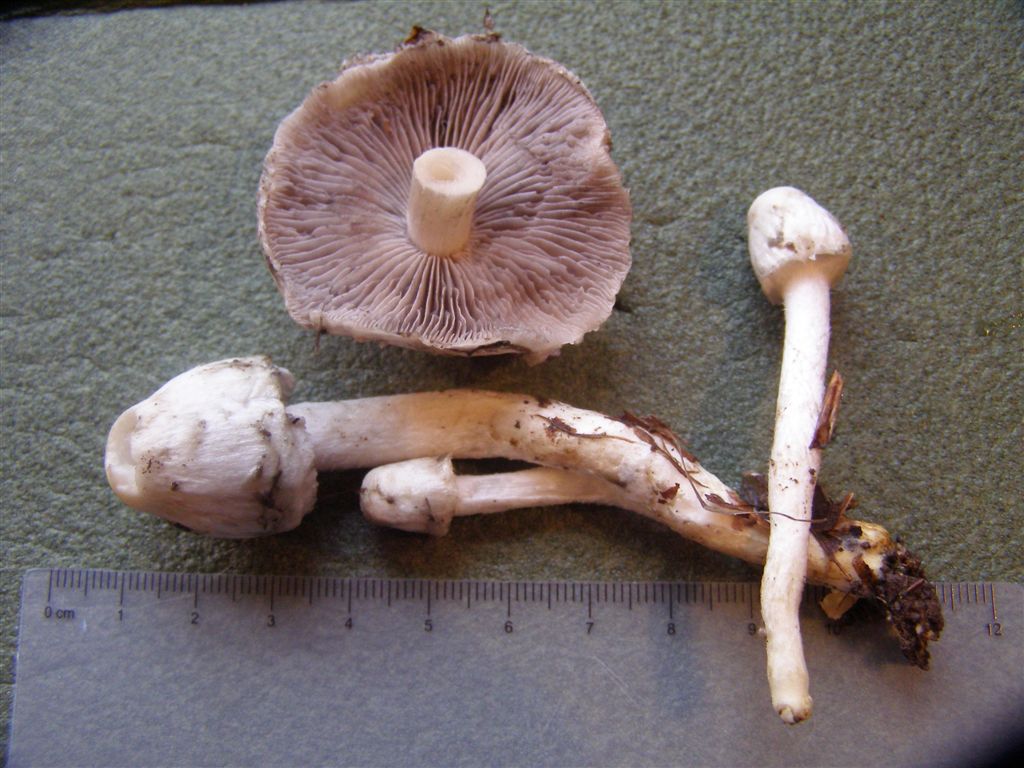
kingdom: Fungi
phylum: Basidiomycota
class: Agaricomycetes
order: Agaricales
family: Psathyrellaceae
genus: Psathyrella
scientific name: Psathyrella cotonea
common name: skællet mørkhat
